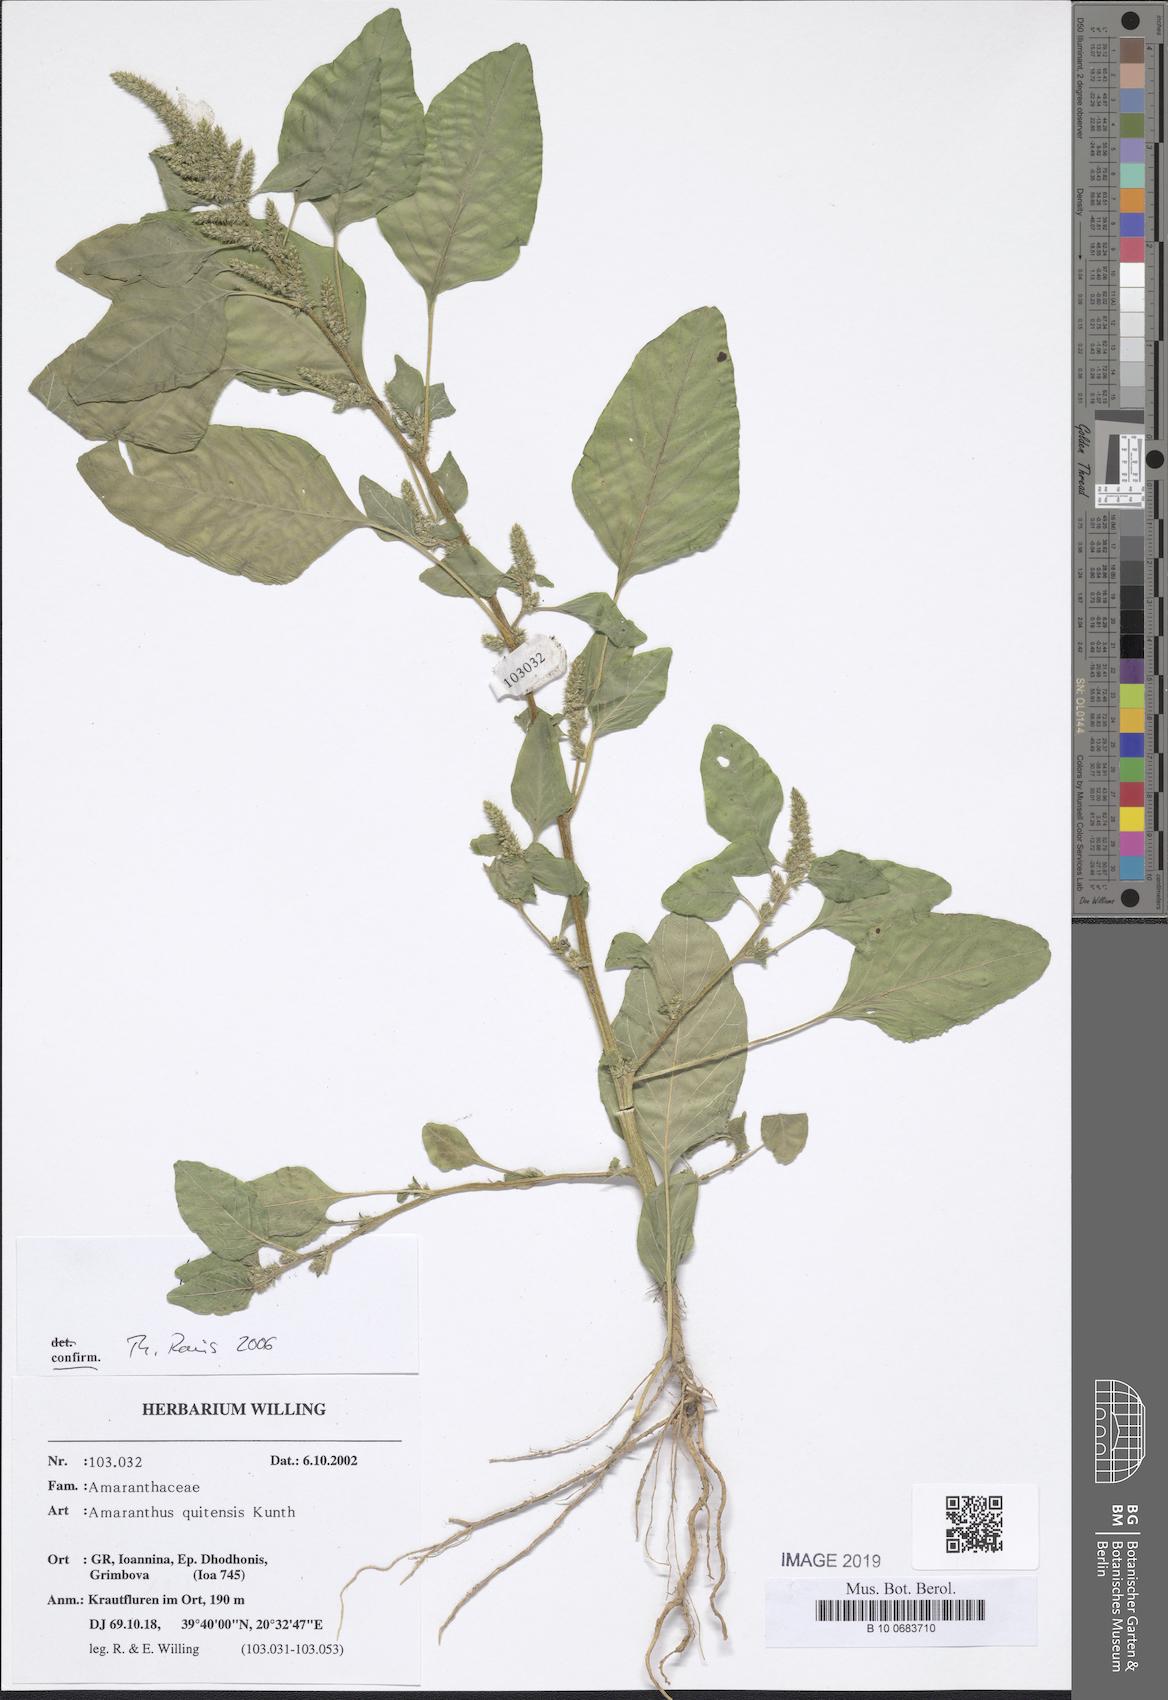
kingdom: Plantae
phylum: Tracheophyta
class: Magnoliopsida
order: Caryophyllales
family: Amaranthaceae
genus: Amaranthus
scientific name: Amaranthus quitensis
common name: Mucronate amaranth
